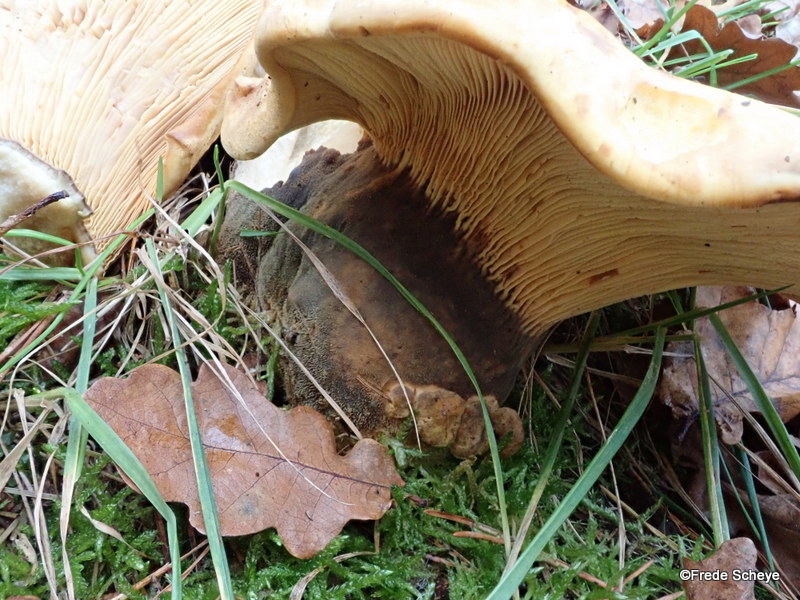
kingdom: Fungi
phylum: Basidiomycota
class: Agaricomycetes
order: Boletales
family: Tapinellaceae
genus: Tapinella
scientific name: Tapinella atrotomentosa
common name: sortfiltet viftesvamp
